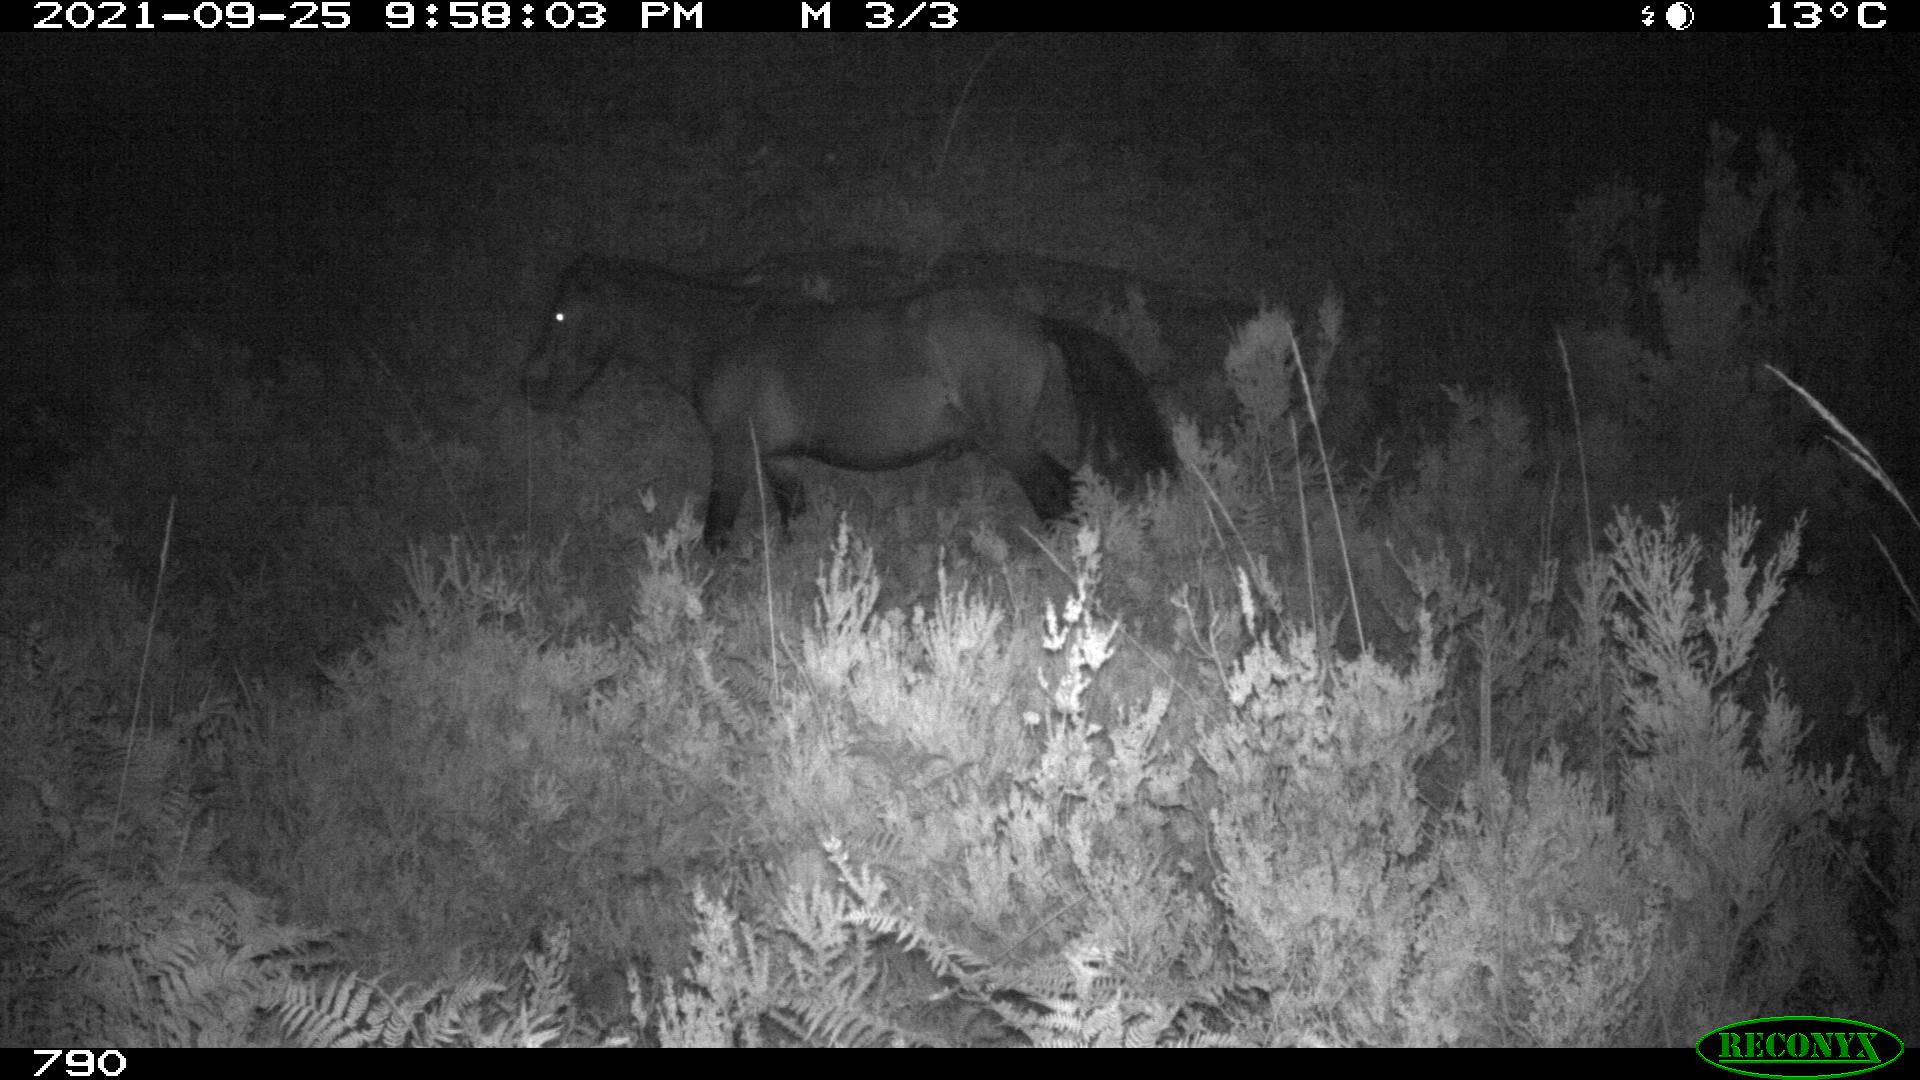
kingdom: Animalia
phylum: Chordata
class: Mammalia
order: Perissodactyla
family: Equidae
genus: Equus
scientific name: Equus caballus
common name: Horse
